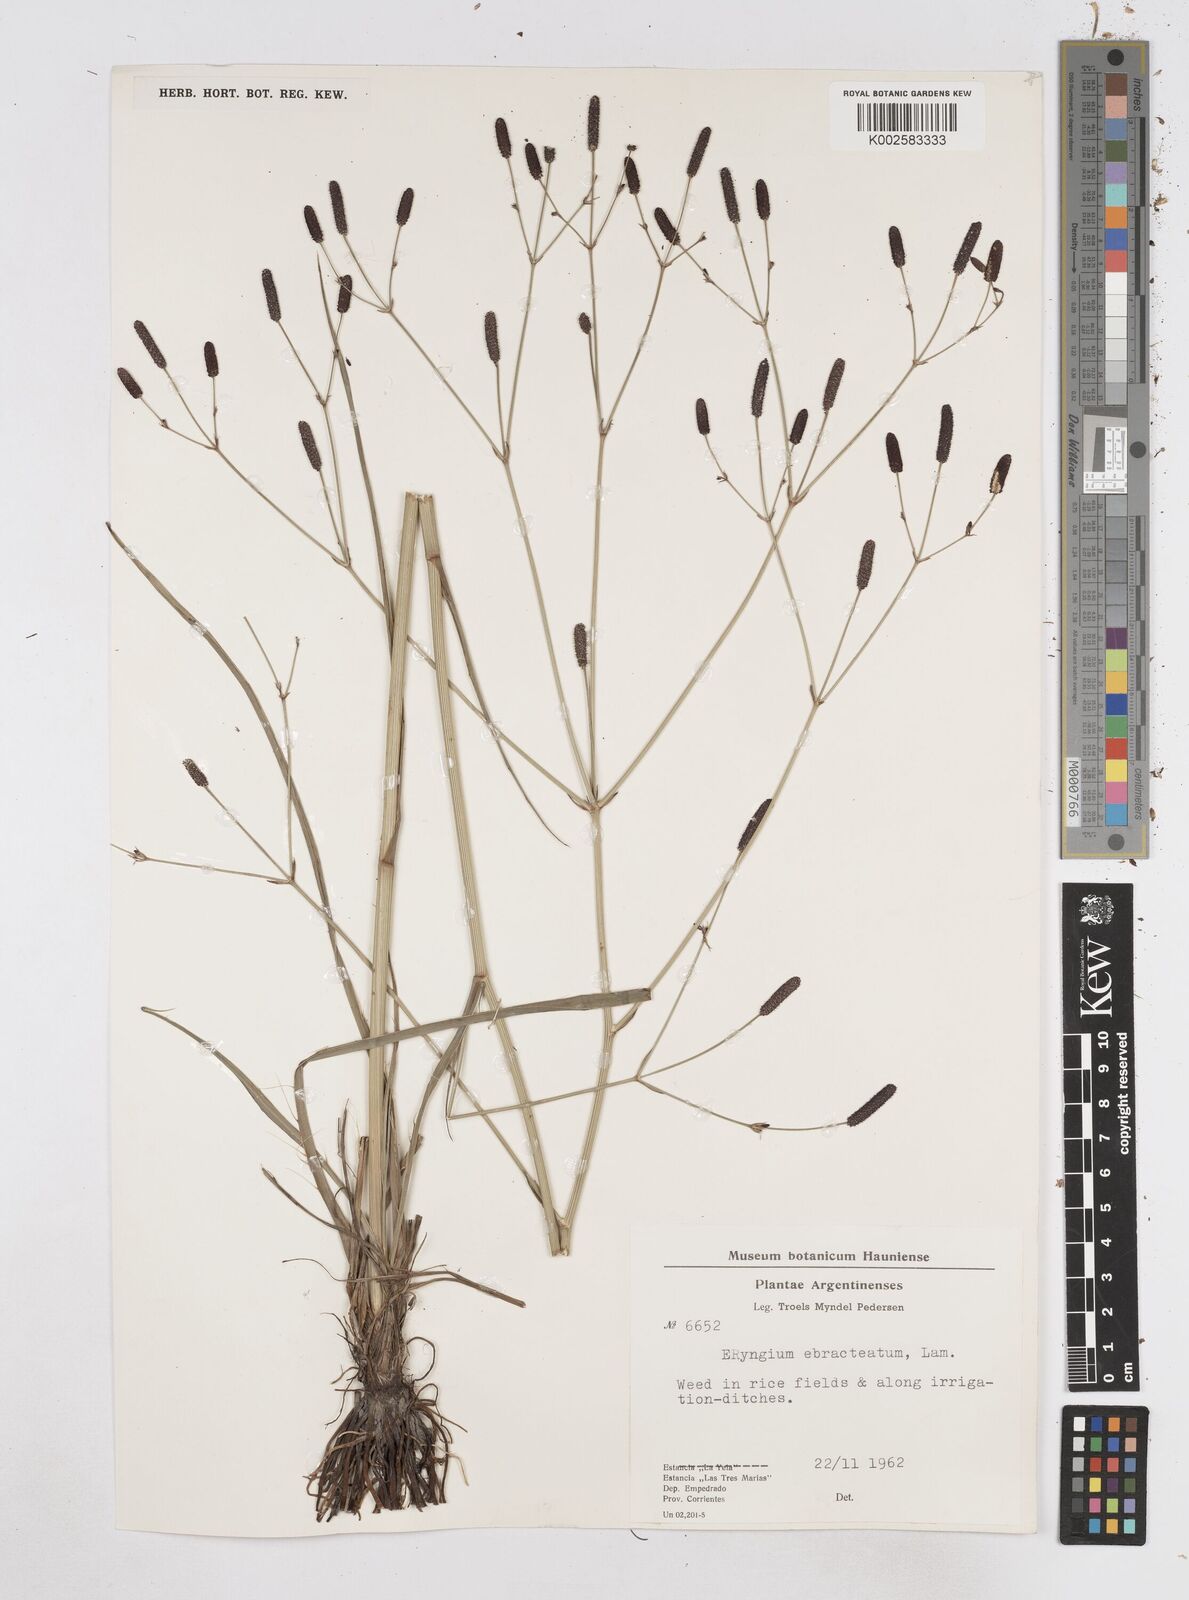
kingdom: Plantae
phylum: Tracheophyta
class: Magnoliopsida
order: Apiales
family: Apiaceae
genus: Eryngium
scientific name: Eryngium ebracteatum
